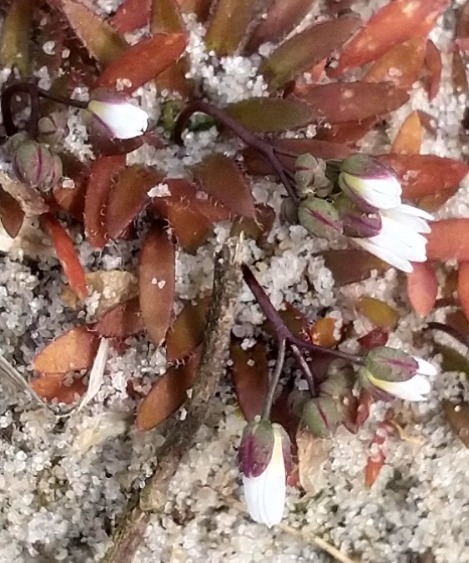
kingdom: Plantae
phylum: Tracheophyta
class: Magnoliopsida
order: Brassicales
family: Brassicaceae
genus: Draba
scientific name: Draba verna
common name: Vår-gæslingeblomst
